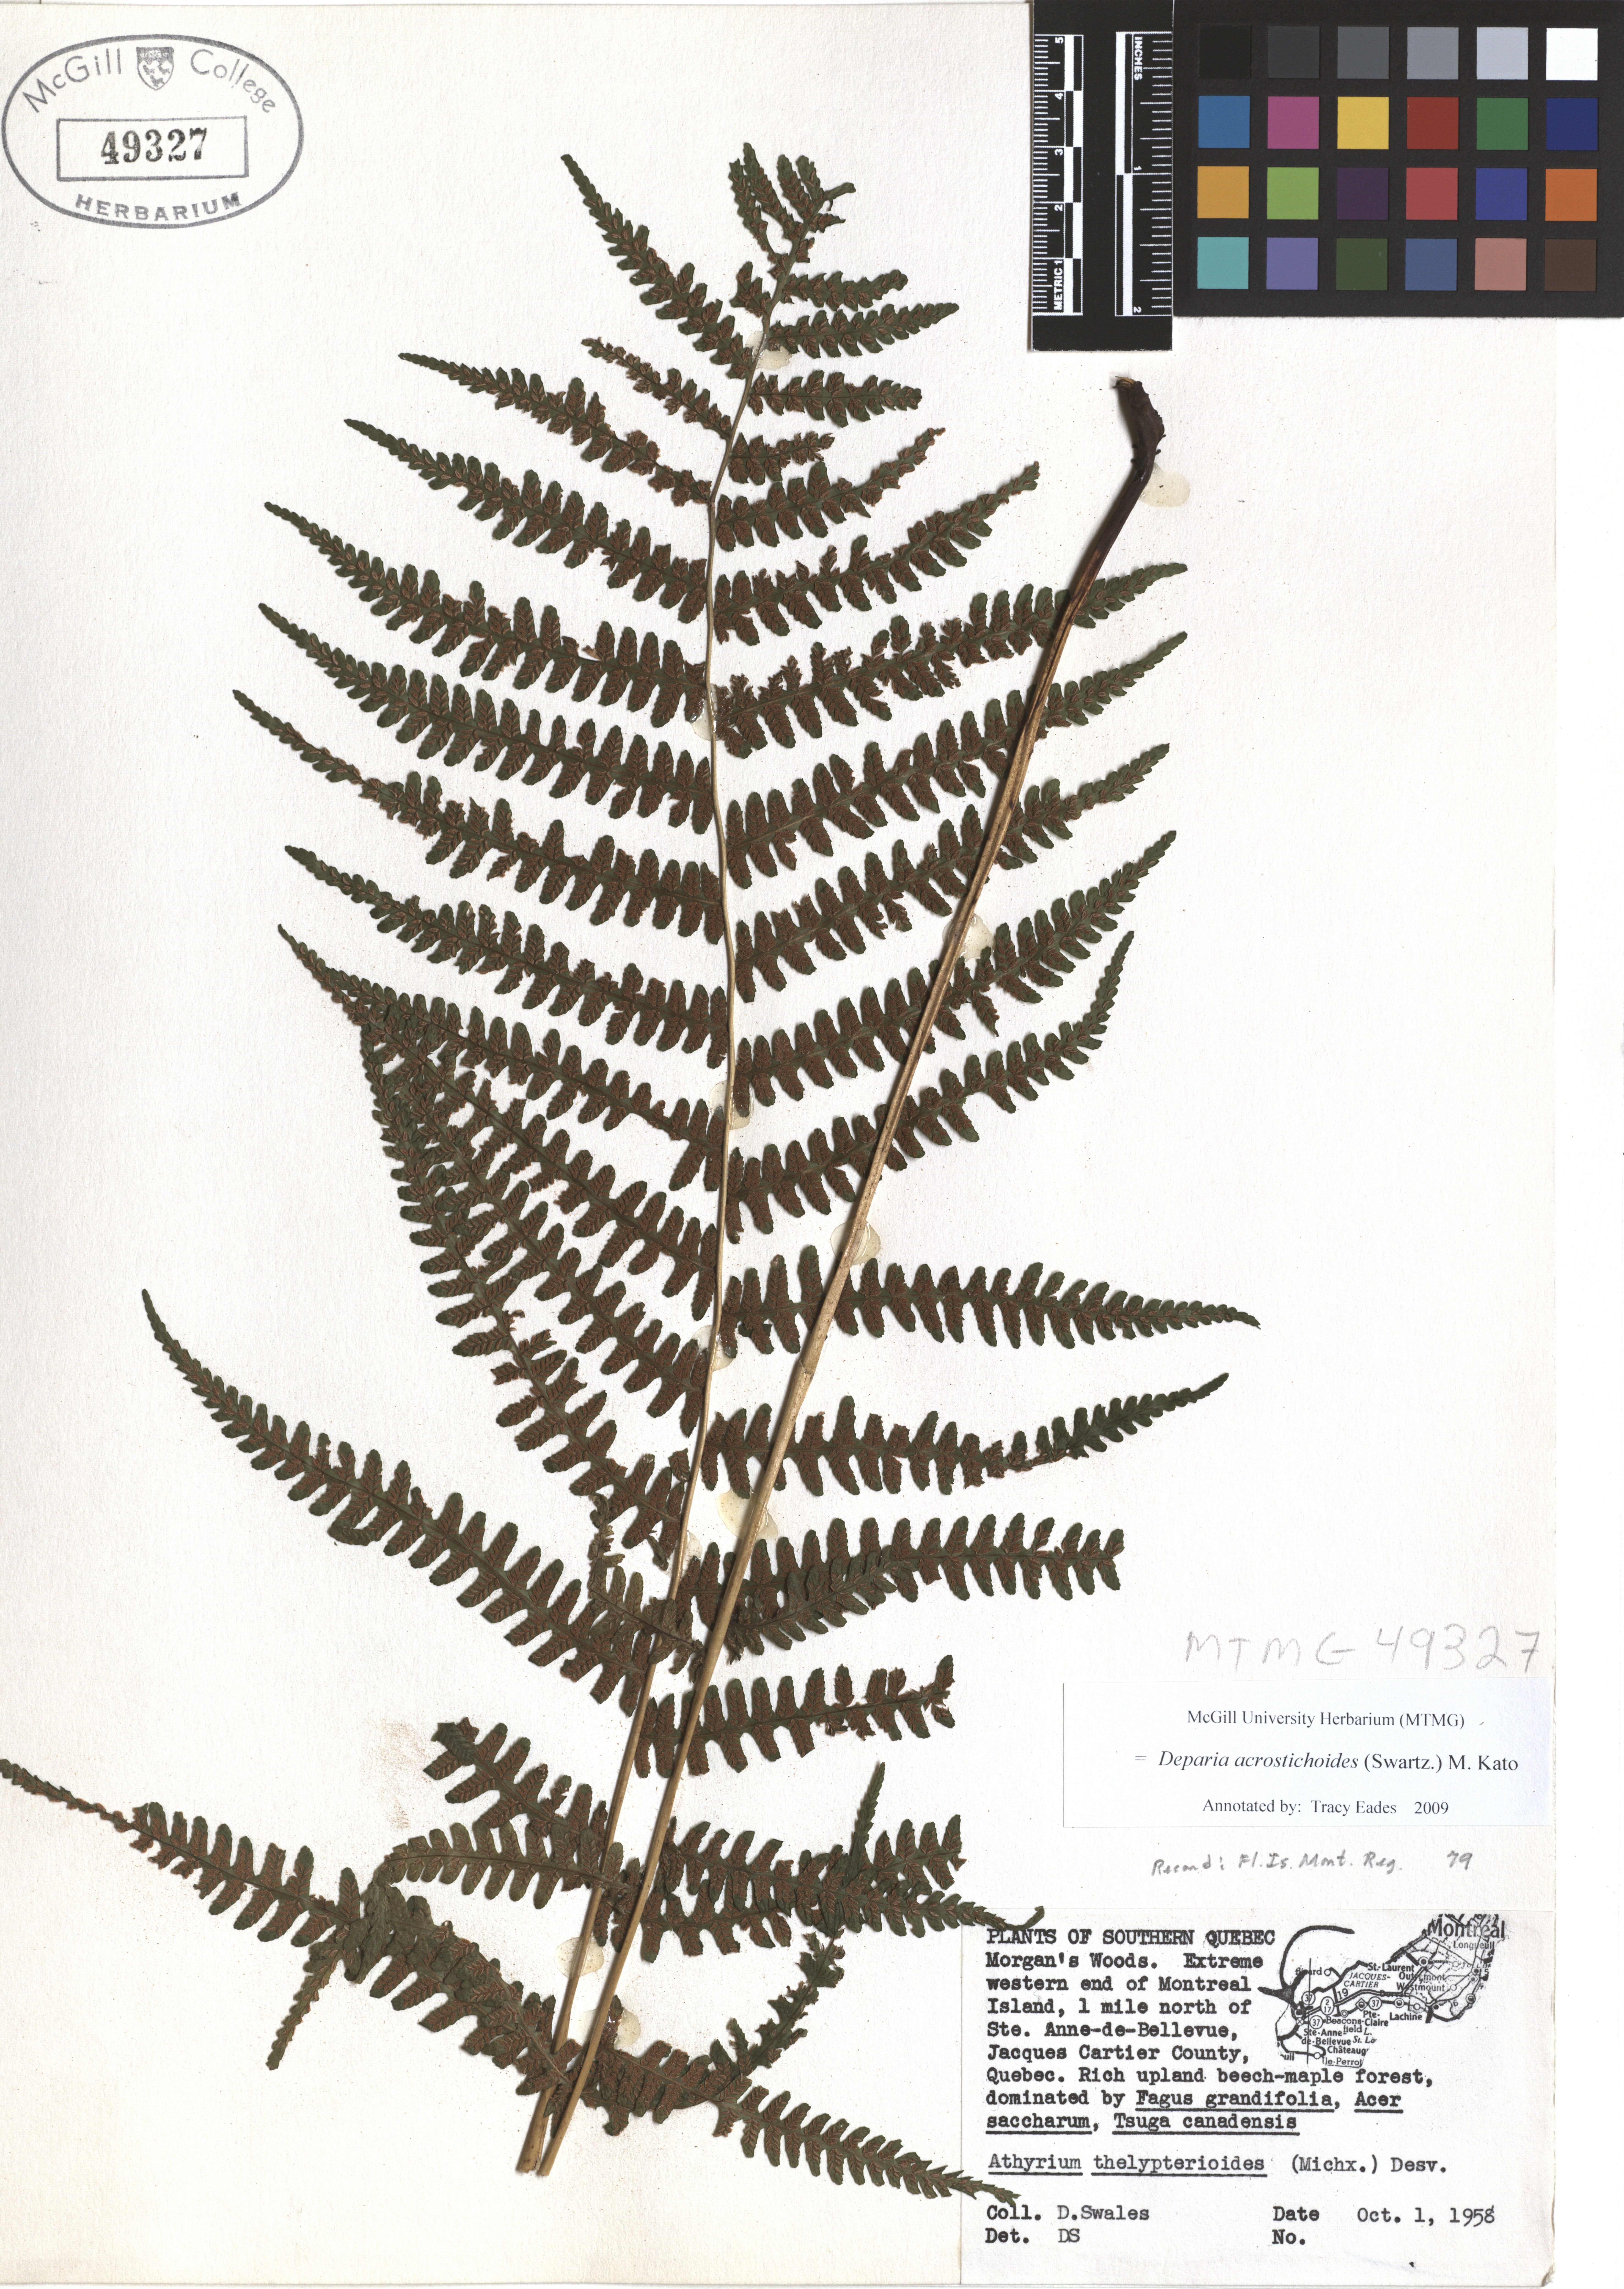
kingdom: Plantae
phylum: Tracheophyta
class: Polypodiopsida
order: Polypodiales
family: Athyriaceae
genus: Deparia
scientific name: Deparia acrostichoides
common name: Silver false spleenwort
